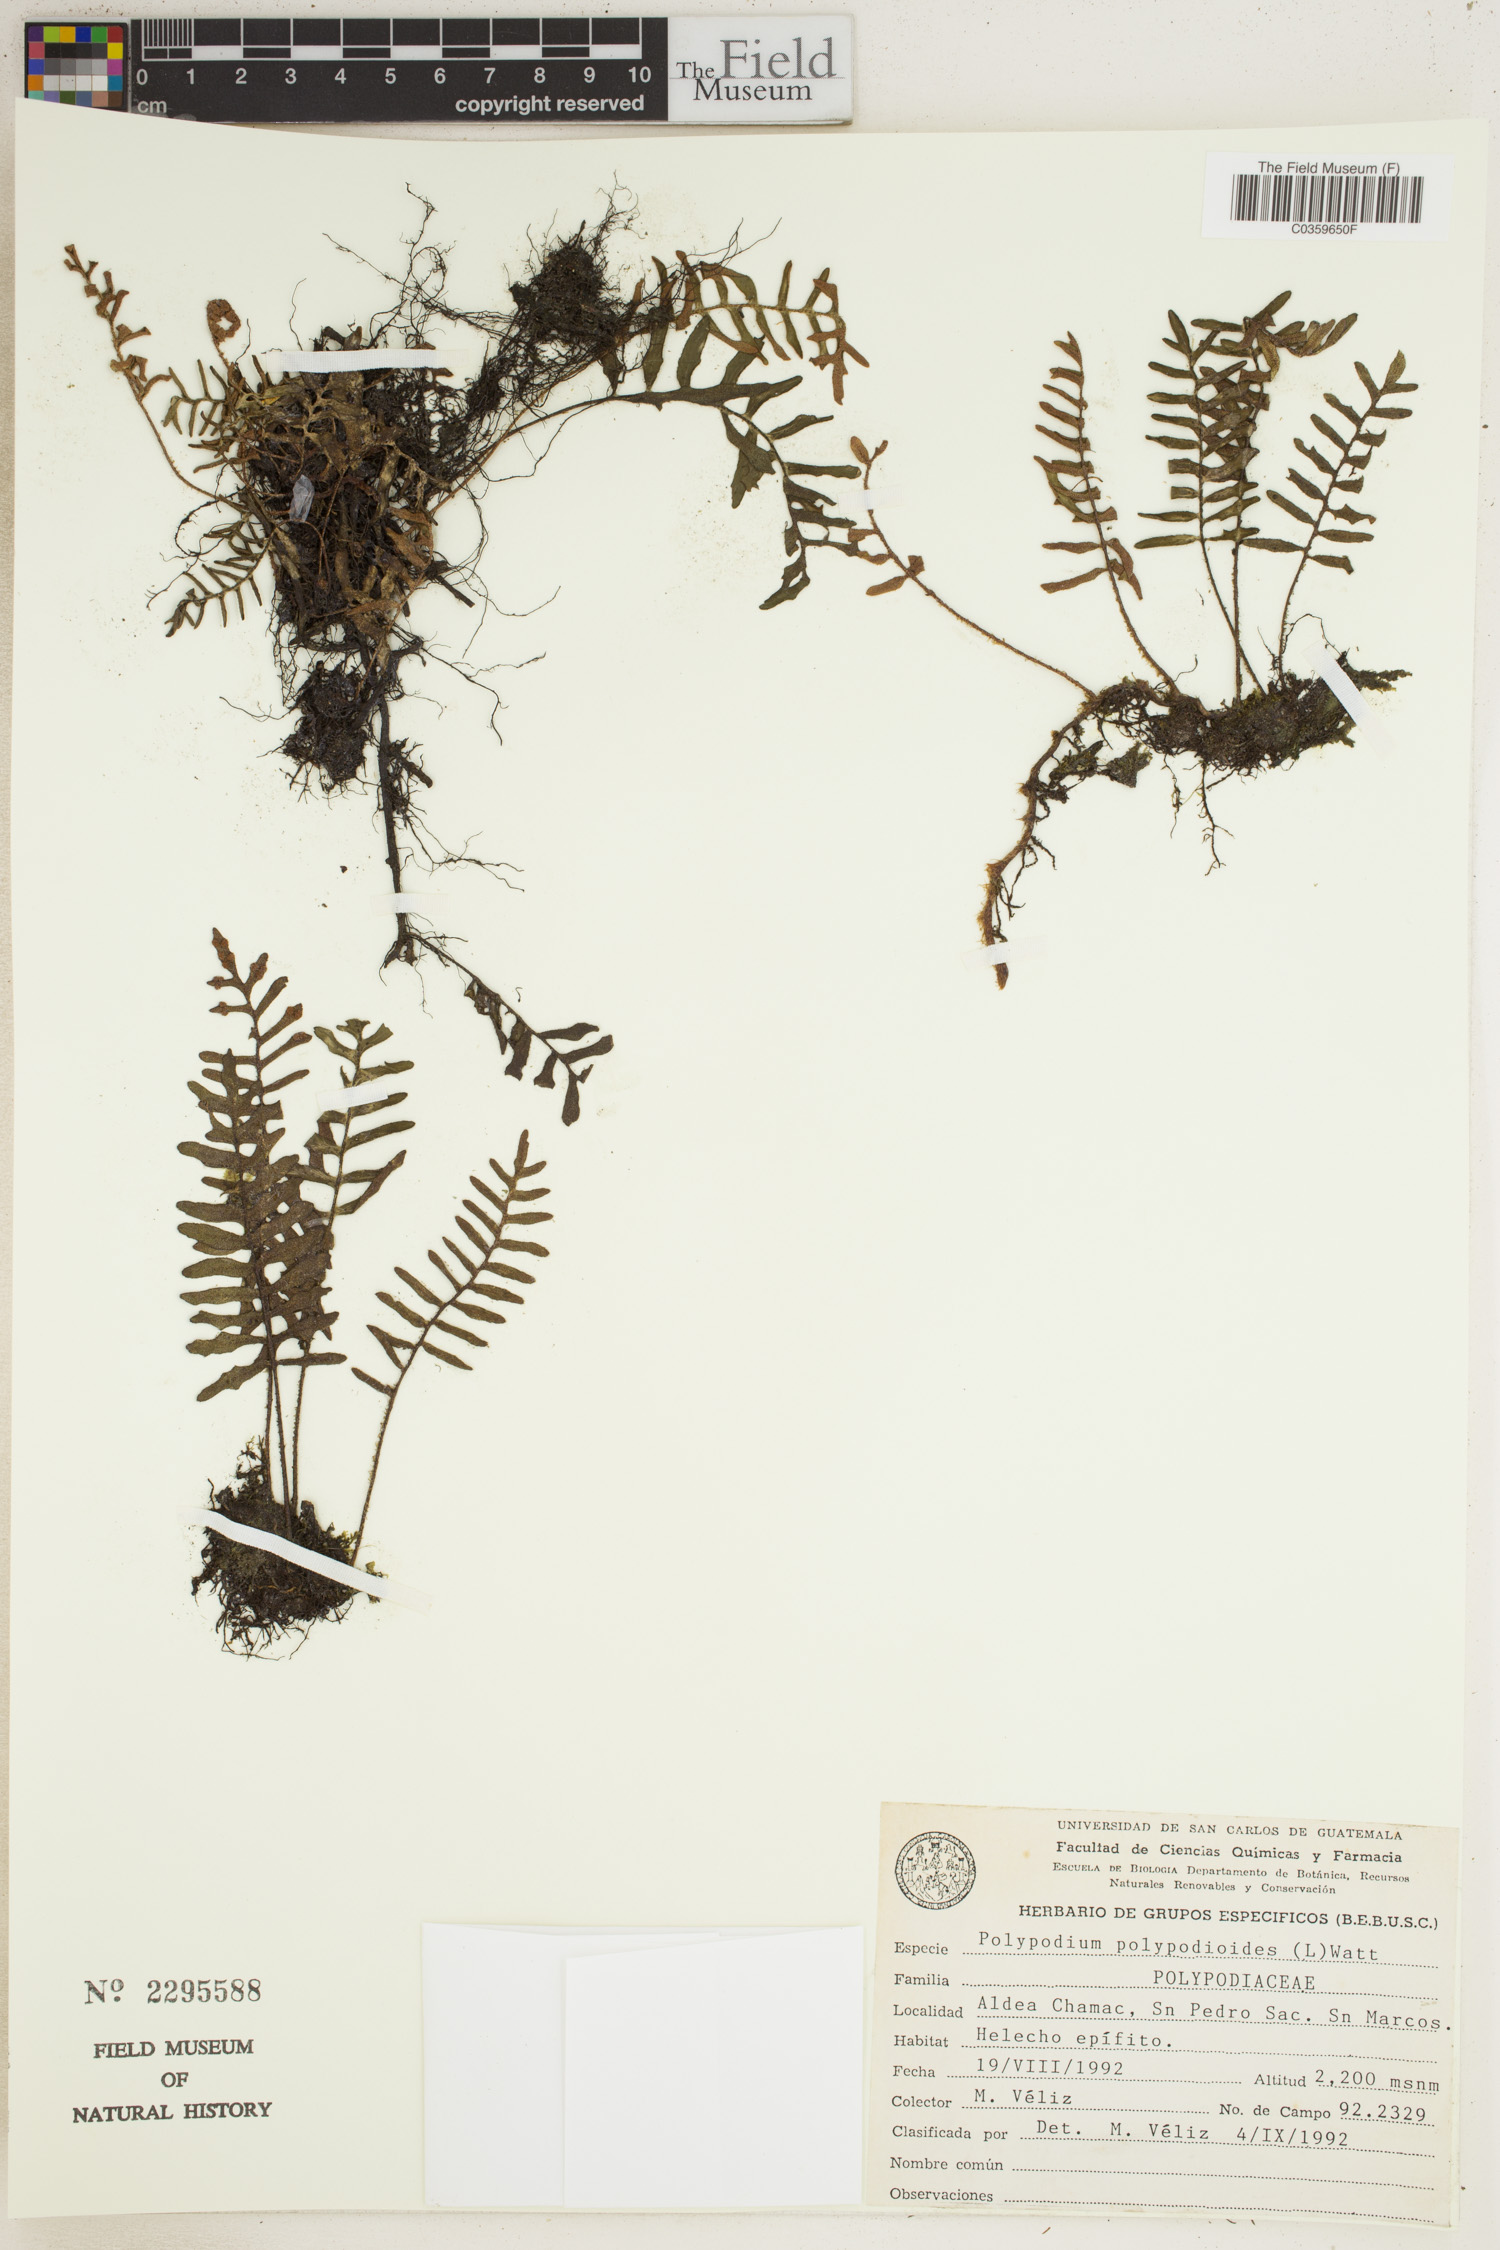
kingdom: Plantae
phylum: Tracheophyta
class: Polypodiopsida
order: Polypodiales
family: Polypodiaceae
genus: Pleopeltis
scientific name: Pleopeltis polypodioides
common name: Resurrection fern
